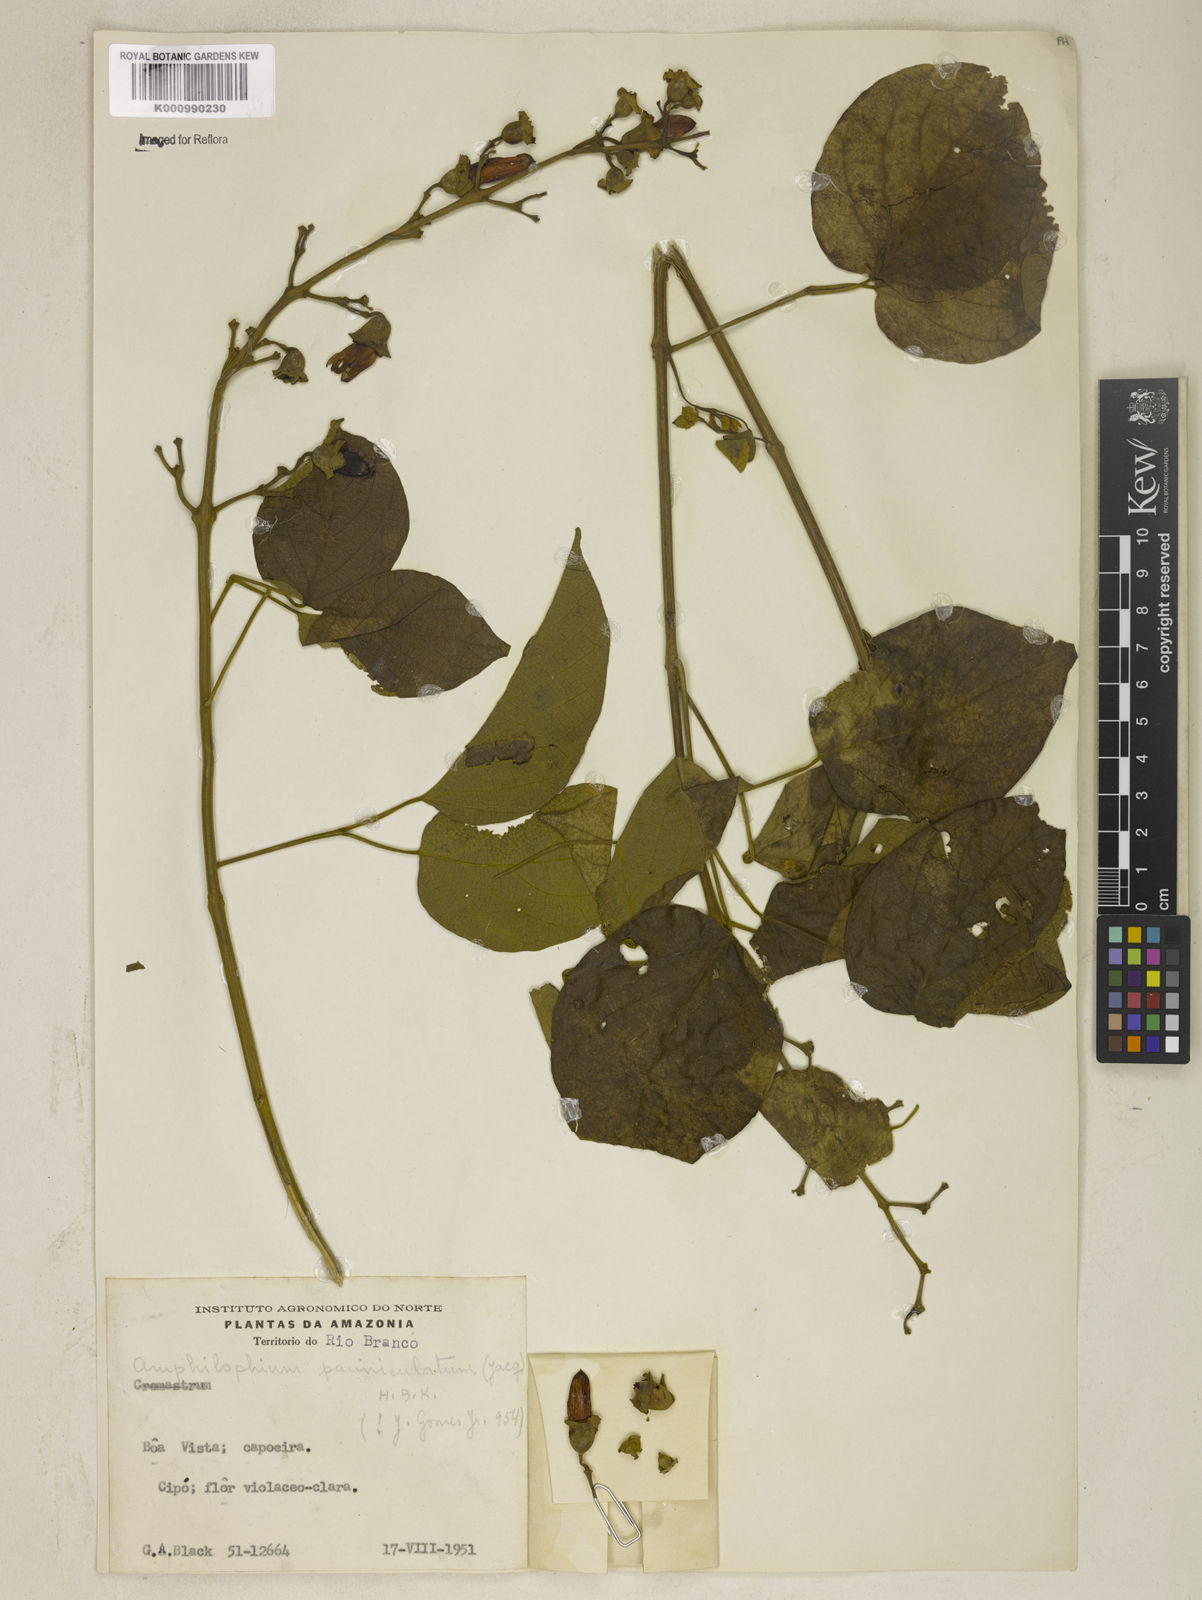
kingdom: Plantae
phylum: Tracheophyta
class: Magnoliopsida
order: Lamiales
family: Bignoniaceae
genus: Amphilophium
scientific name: Amphilophium paniculatum
